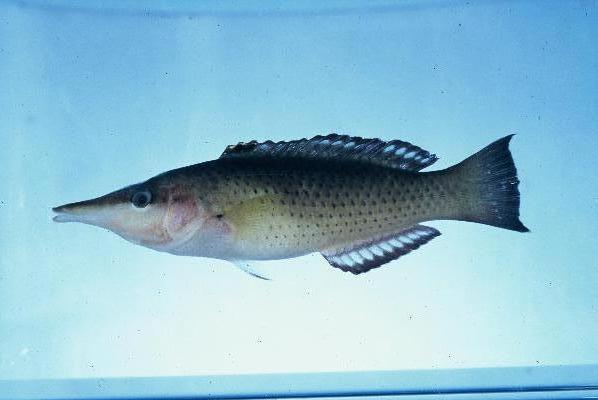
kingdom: Animalia
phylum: Chordata
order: Perciformes
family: Labridae
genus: Gomphosus
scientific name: Gomphosus caeruleus
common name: Bird wrasse
